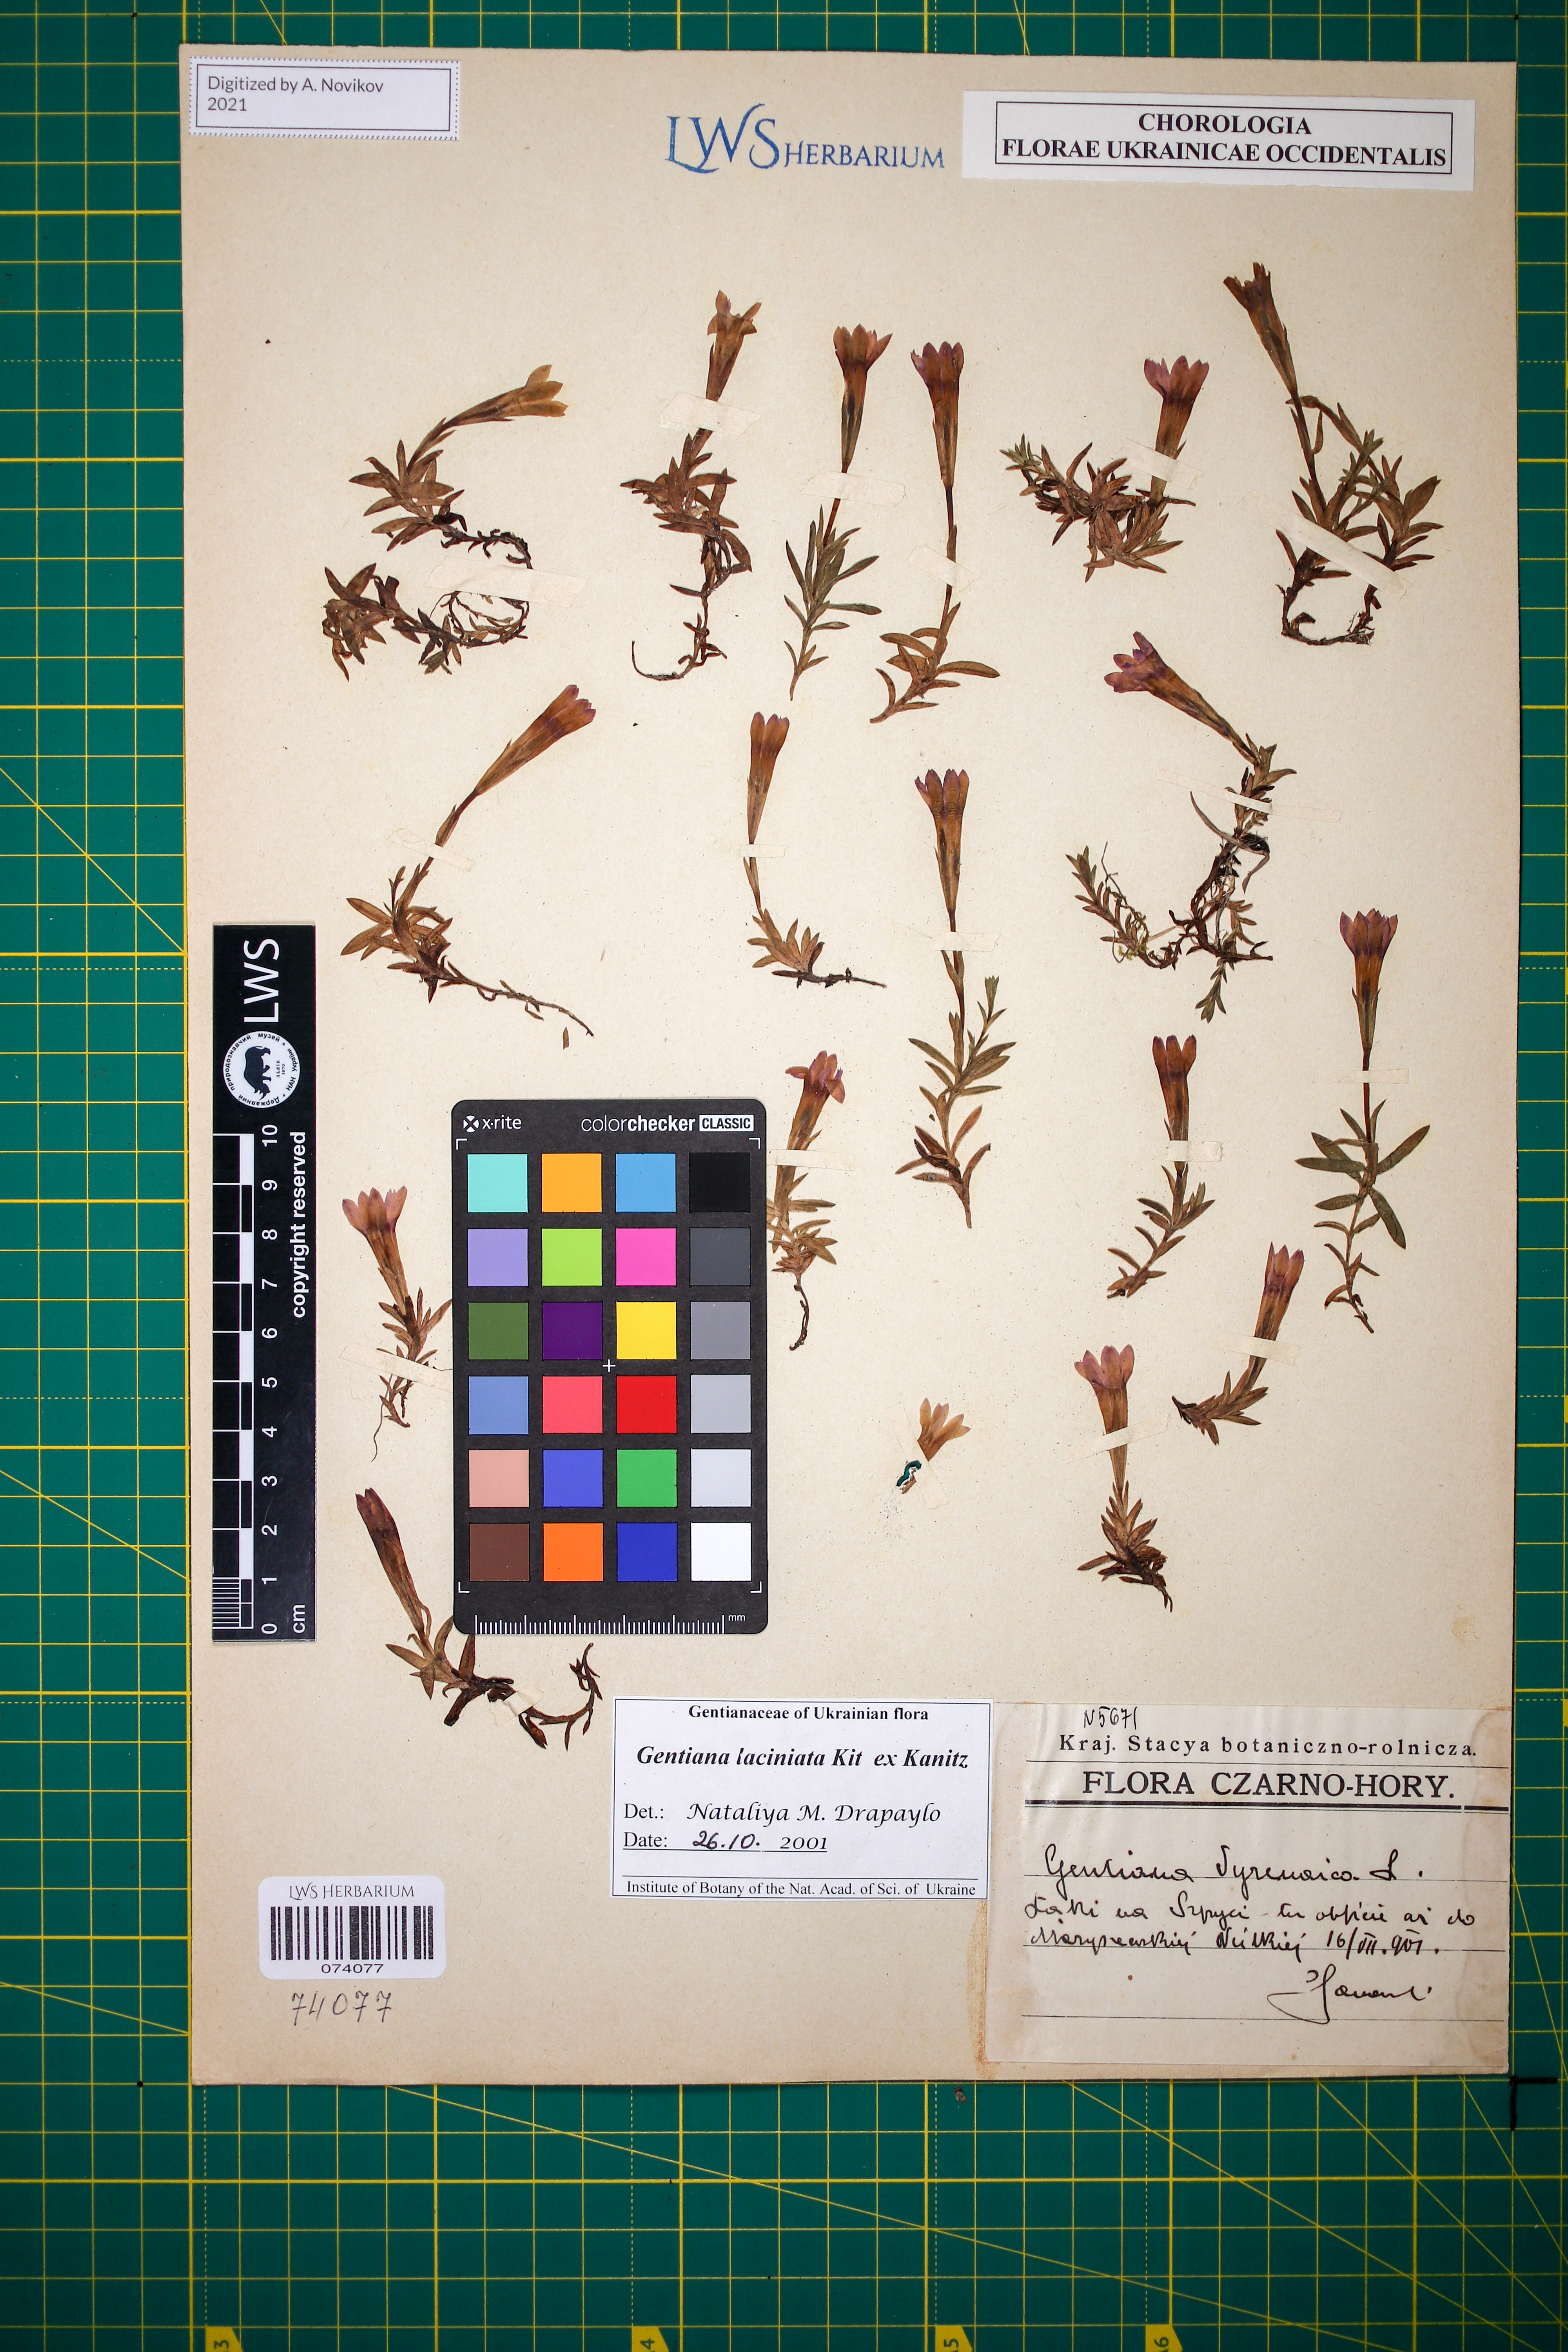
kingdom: Plantae
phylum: Tracheophyta
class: Magnoliopsida
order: Gentianales
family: Gentianaceae
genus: Gentiana
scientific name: Gentiana laciniata
